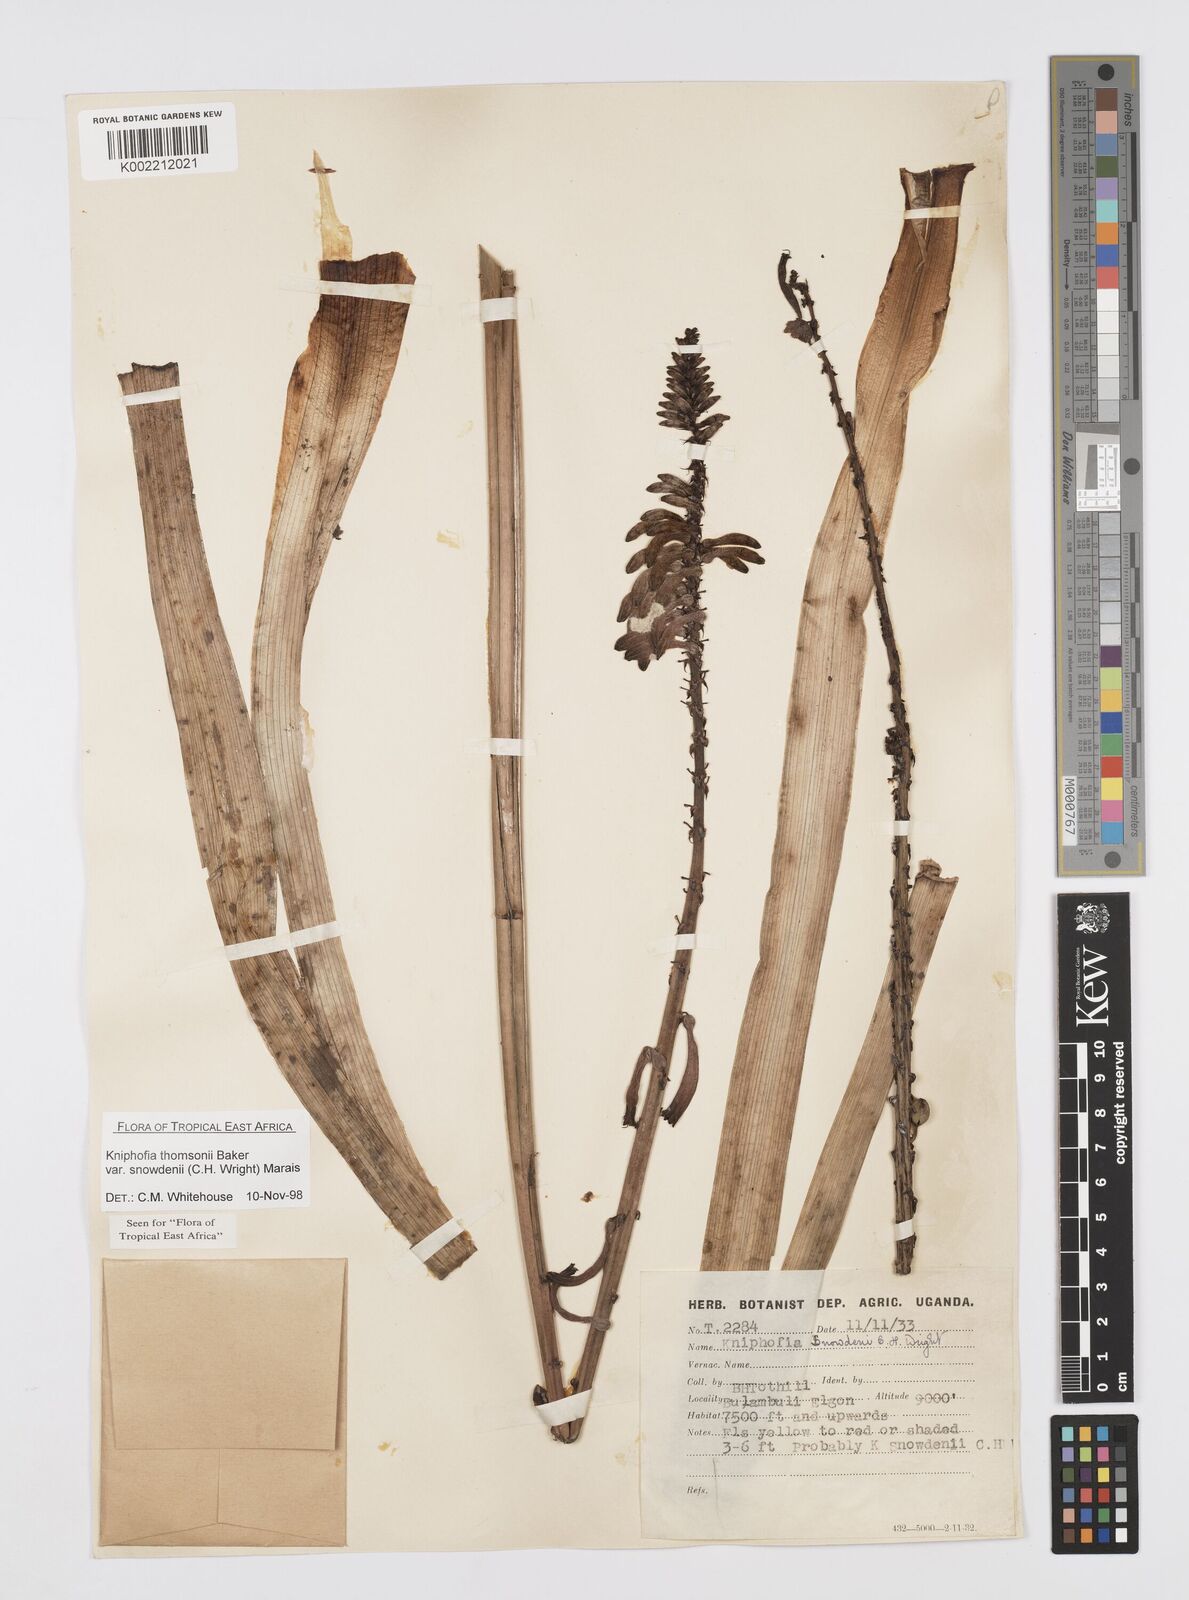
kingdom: Plantae
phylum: Tracheophyta
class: Liliopsida
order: Asparagales
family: Asphodelaceae
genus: Kniphofia
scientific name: Kniphofia thomsonii
